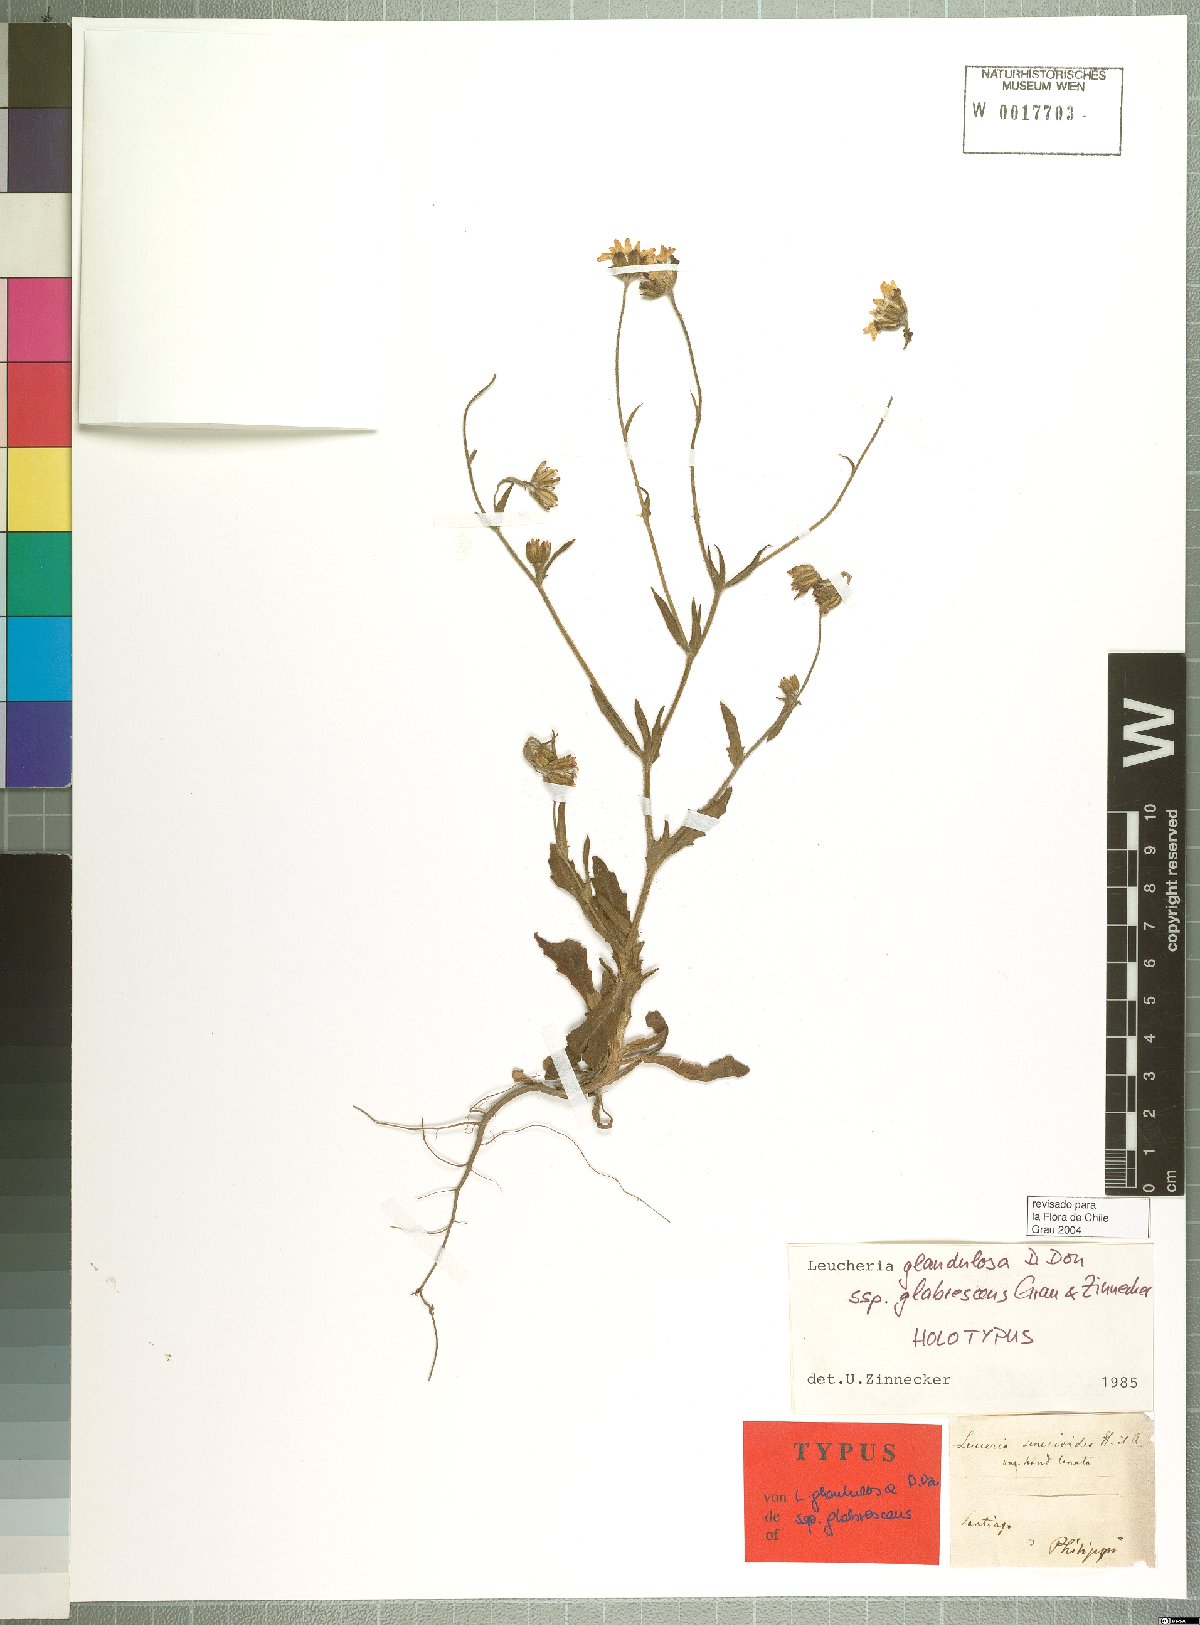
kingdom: Plantae
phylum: Tracheophyta
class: Magnoliopsida
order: Asterales
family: Asteraceae
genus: Leucheria
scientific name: Leucheria glandulosa
